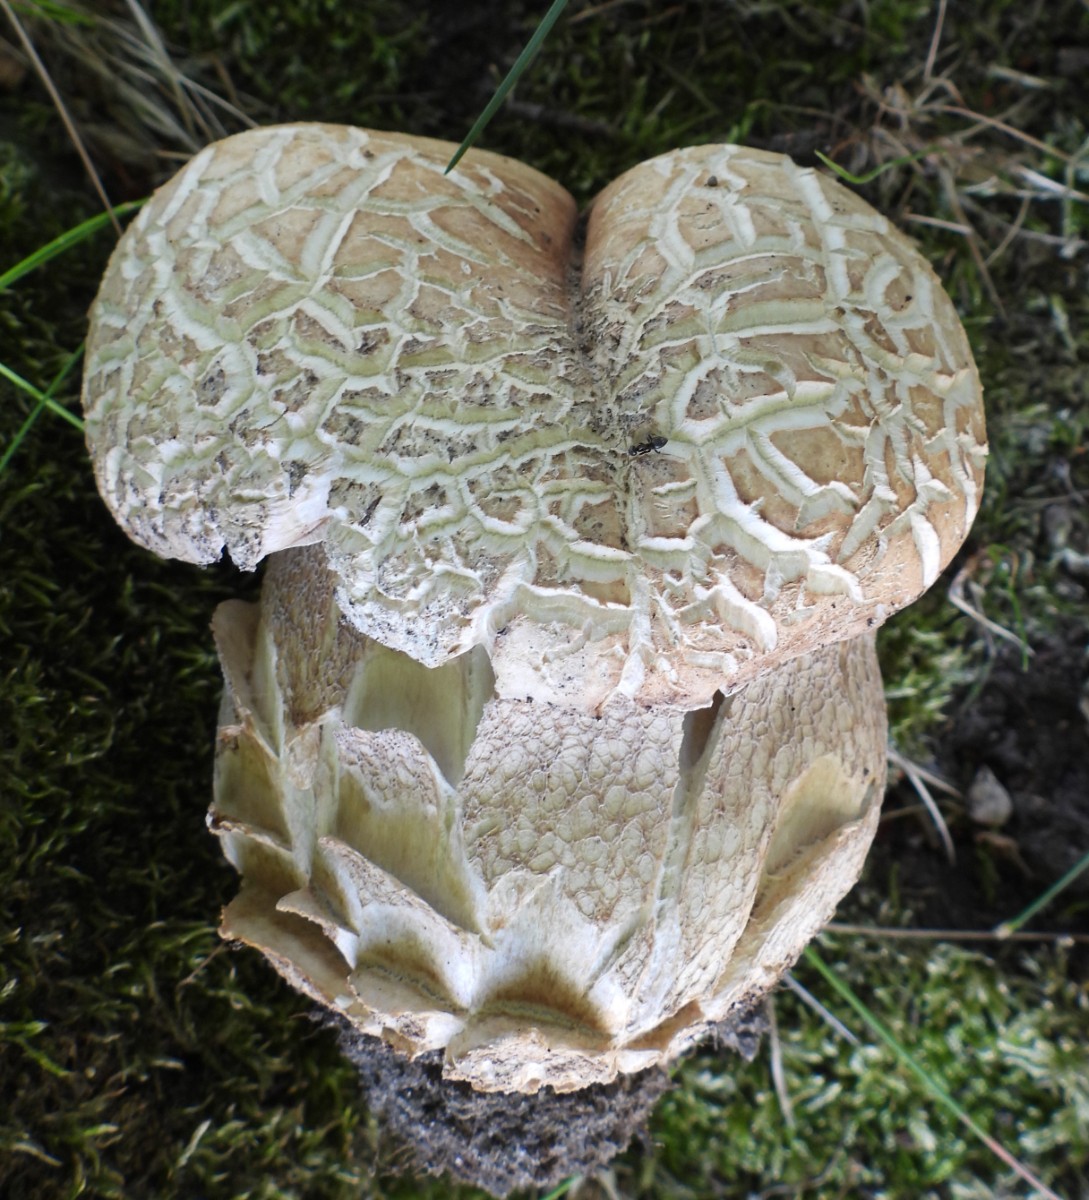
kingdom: Fungi
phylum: Basidiomycota
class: Agaricomycetes
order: Boletales
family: Boletaceae
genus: Boletus
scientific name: Boletus reticulatus
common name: sommer-rørhat
